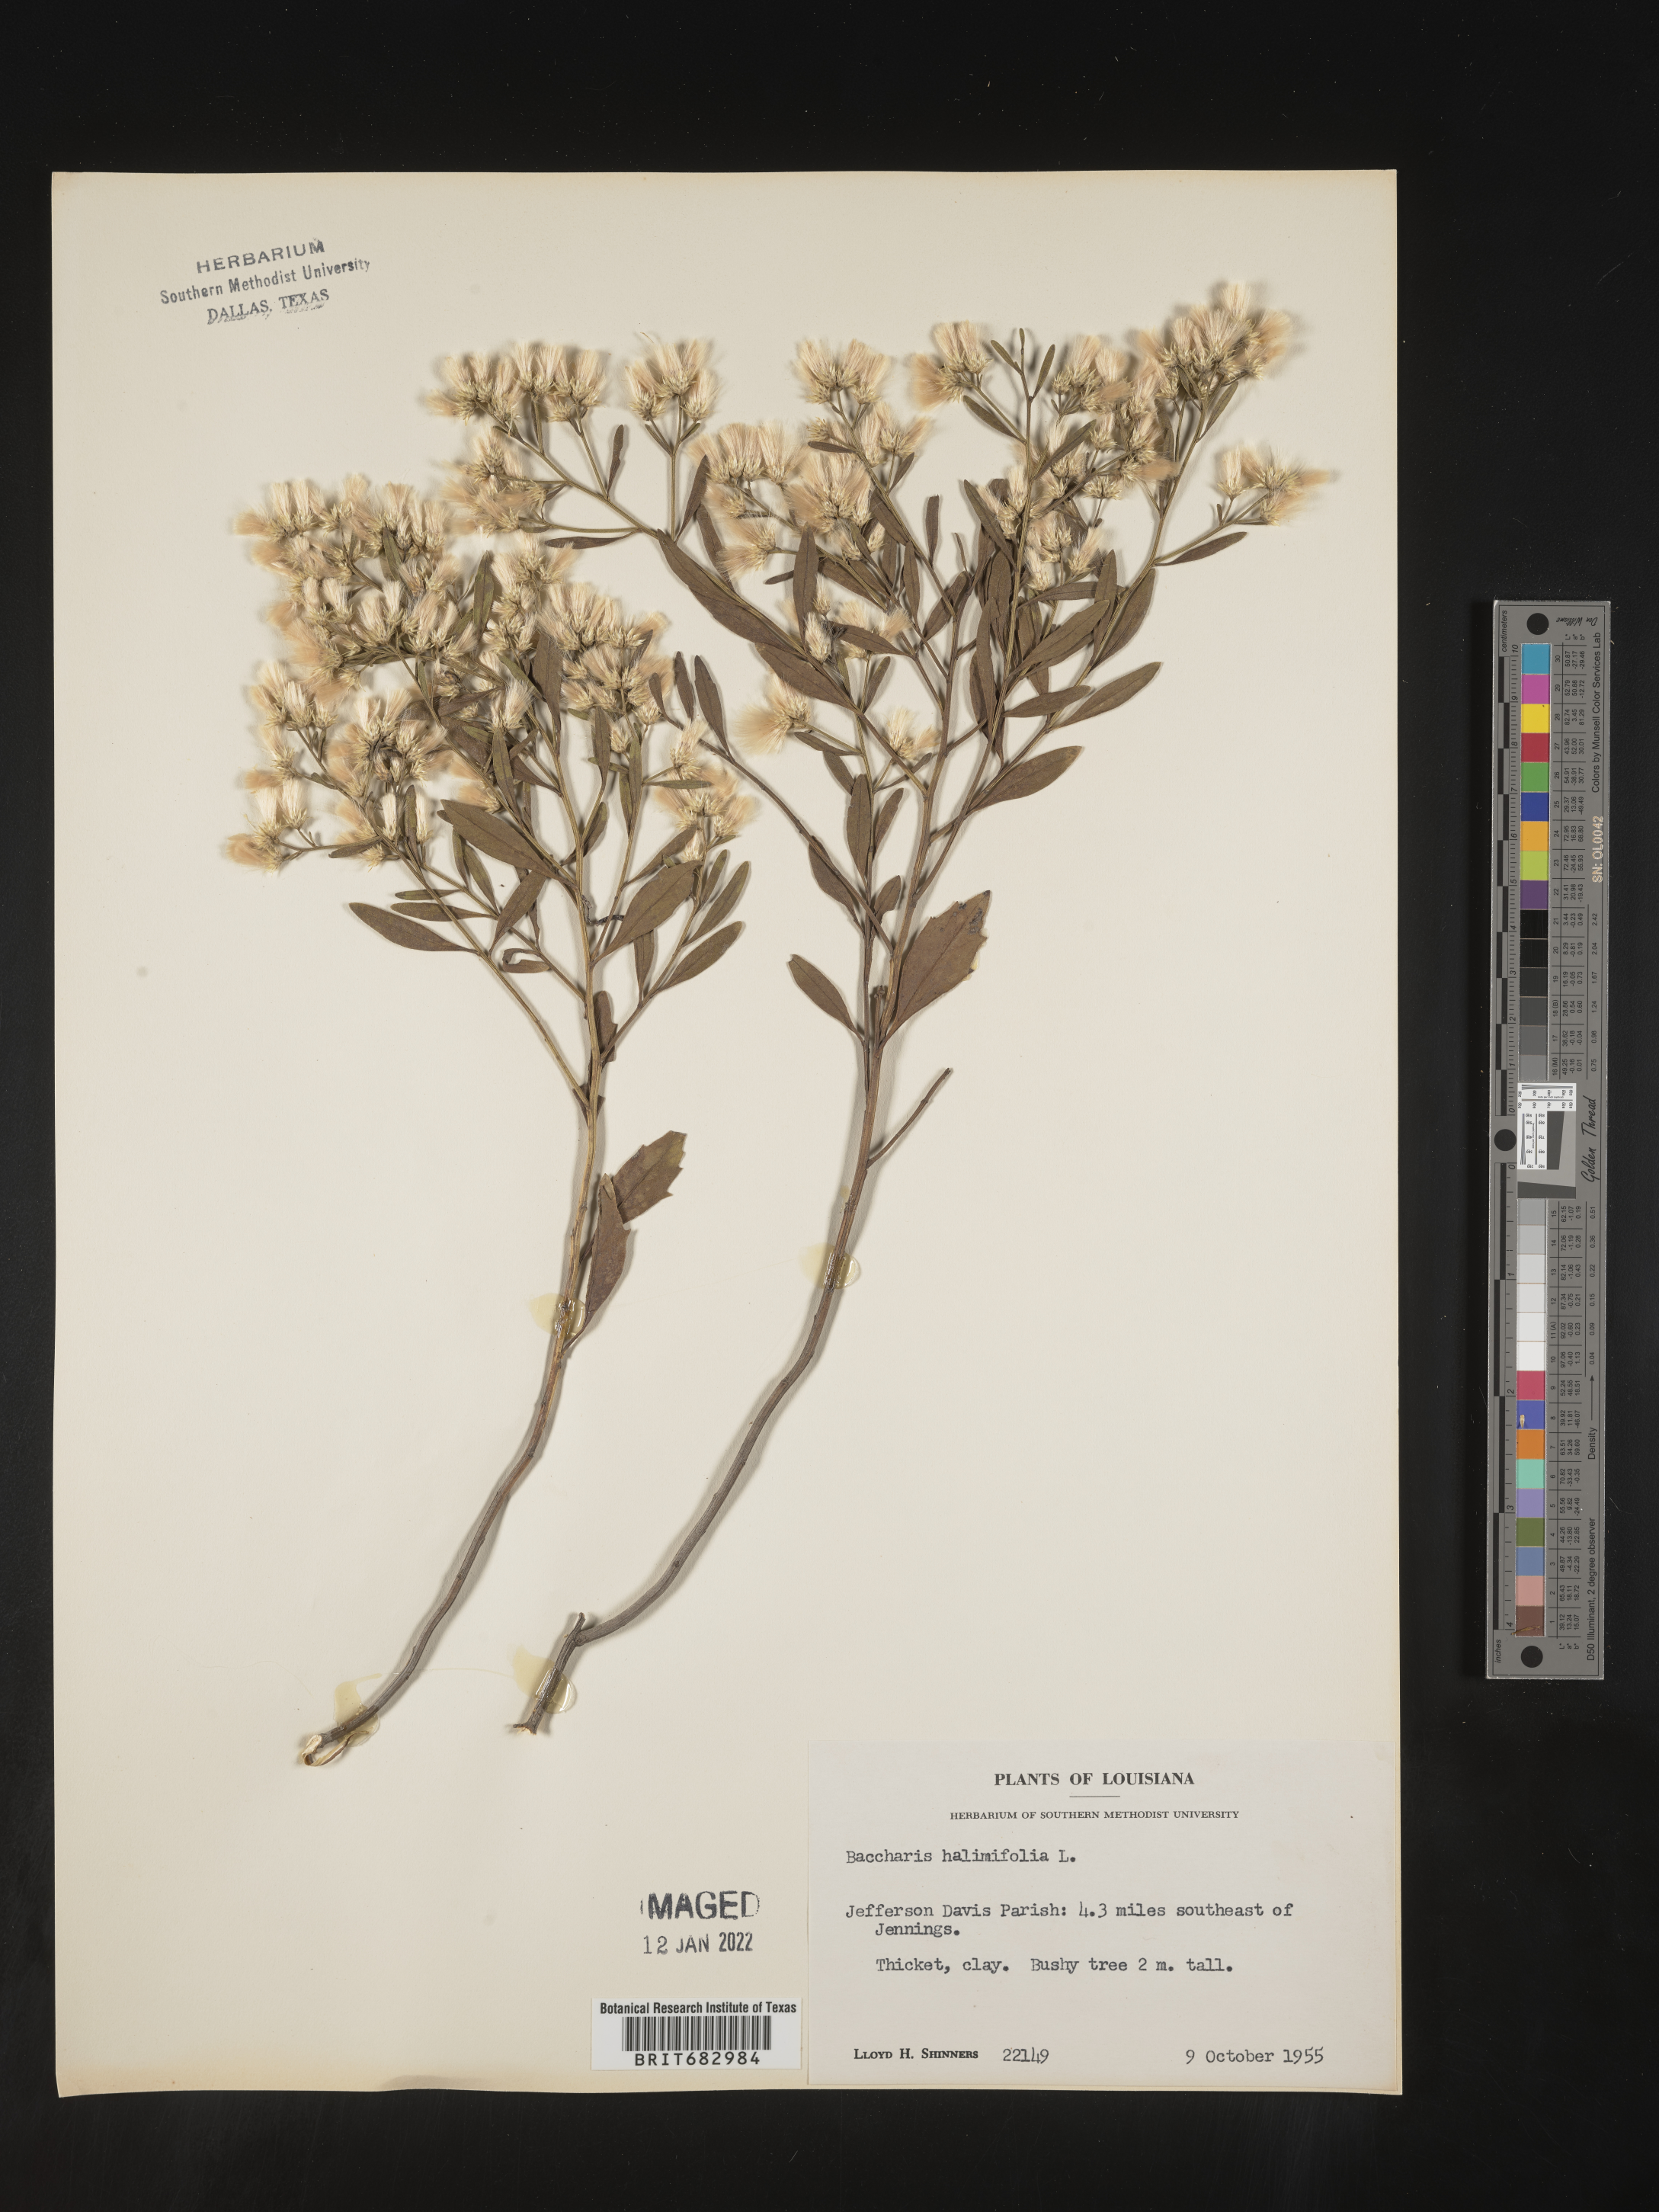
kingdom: Plantae
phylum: Tracheophyta
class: Magnoliopsida
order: Asterales
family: Asteraceae
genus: Nidorella
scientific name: Nidorella ivifolia
